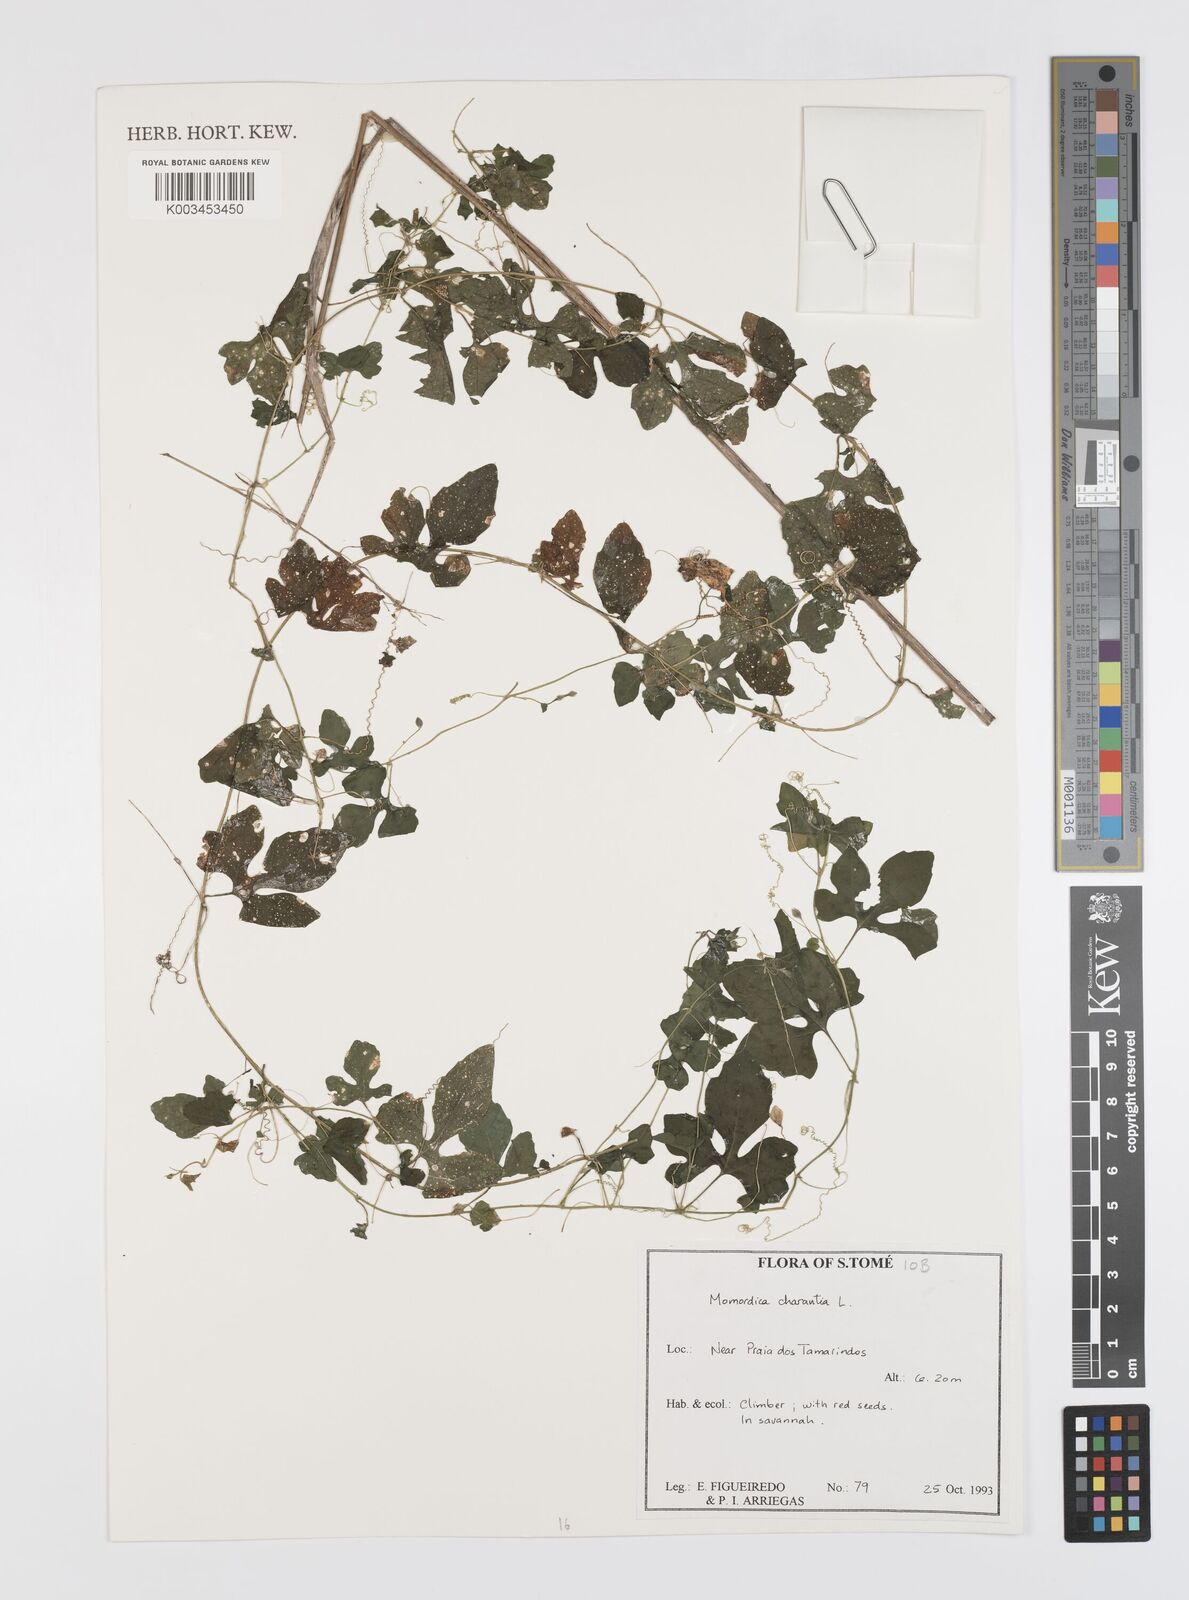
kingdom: Plantae
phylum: Tracheophyta
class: Magnoliopsida
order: Cucurbitales
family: Cucurbitaceae
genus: Momordica
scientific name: Momordica charantia
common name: Balsampear
